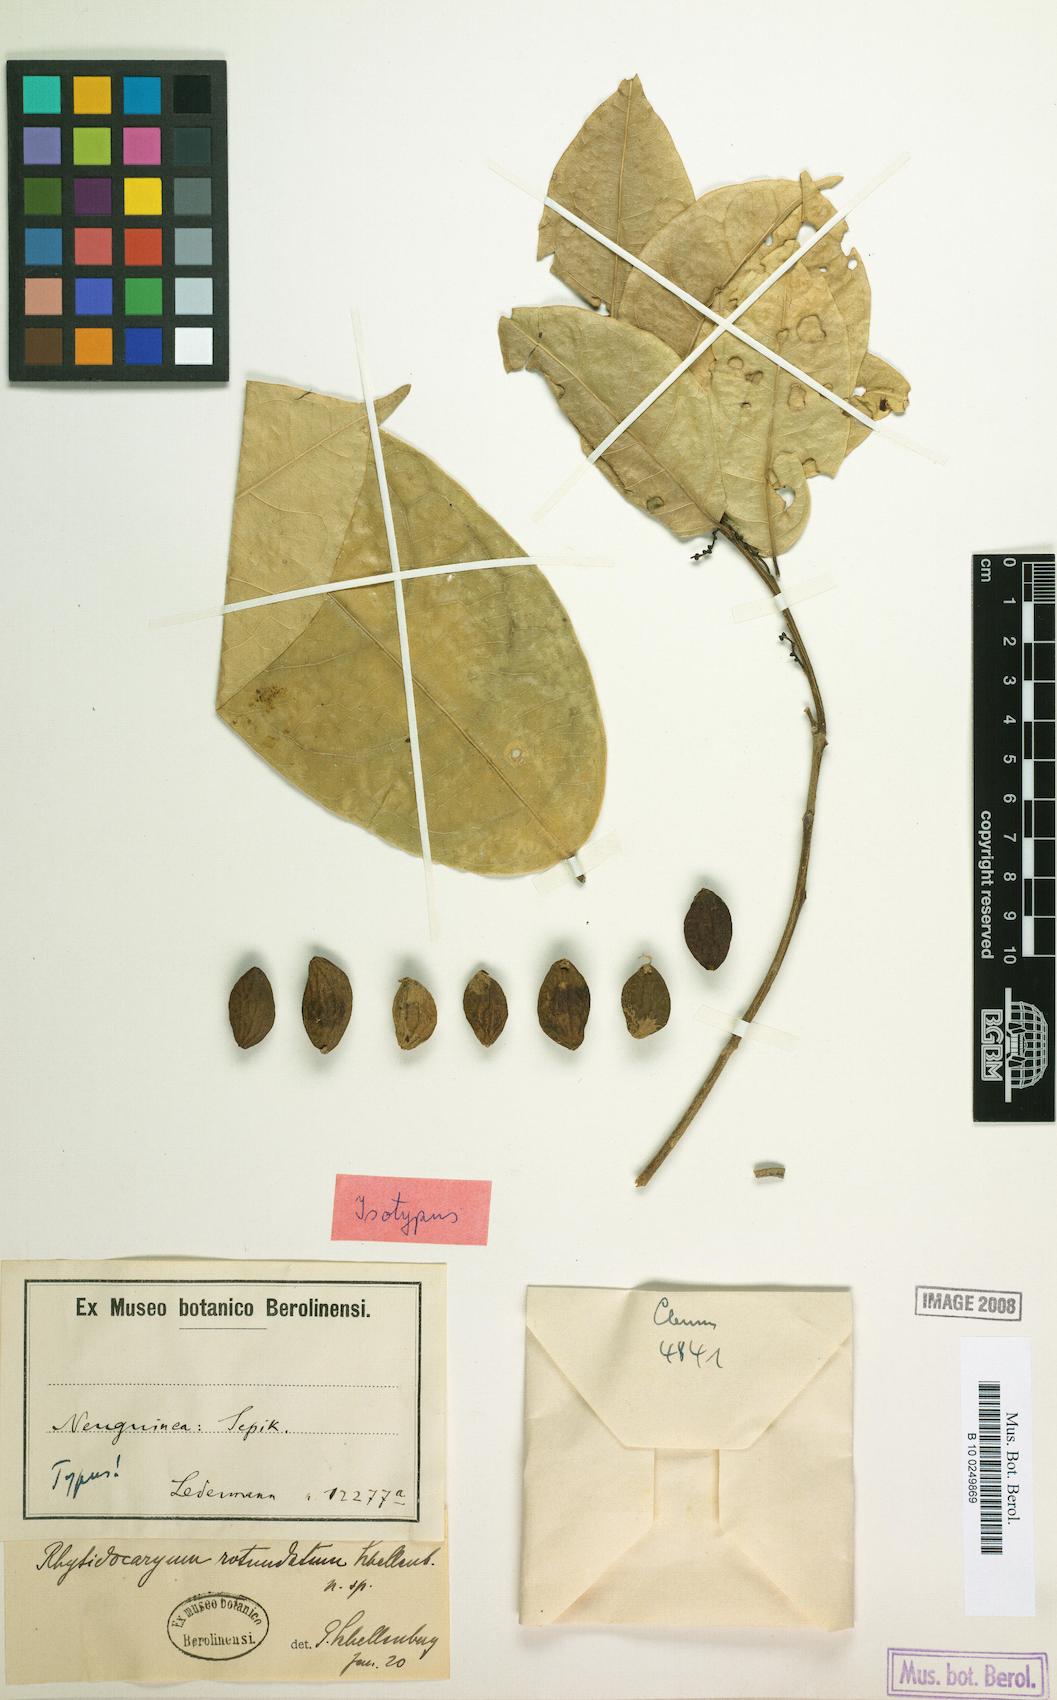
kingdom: Plantae
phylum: Tracheophyta
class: Magnoliopsida
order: Icacinales
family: Icacinaceae
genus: Ryticaryum
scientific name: Ryticaryum Rhyticaryum rotundatum
